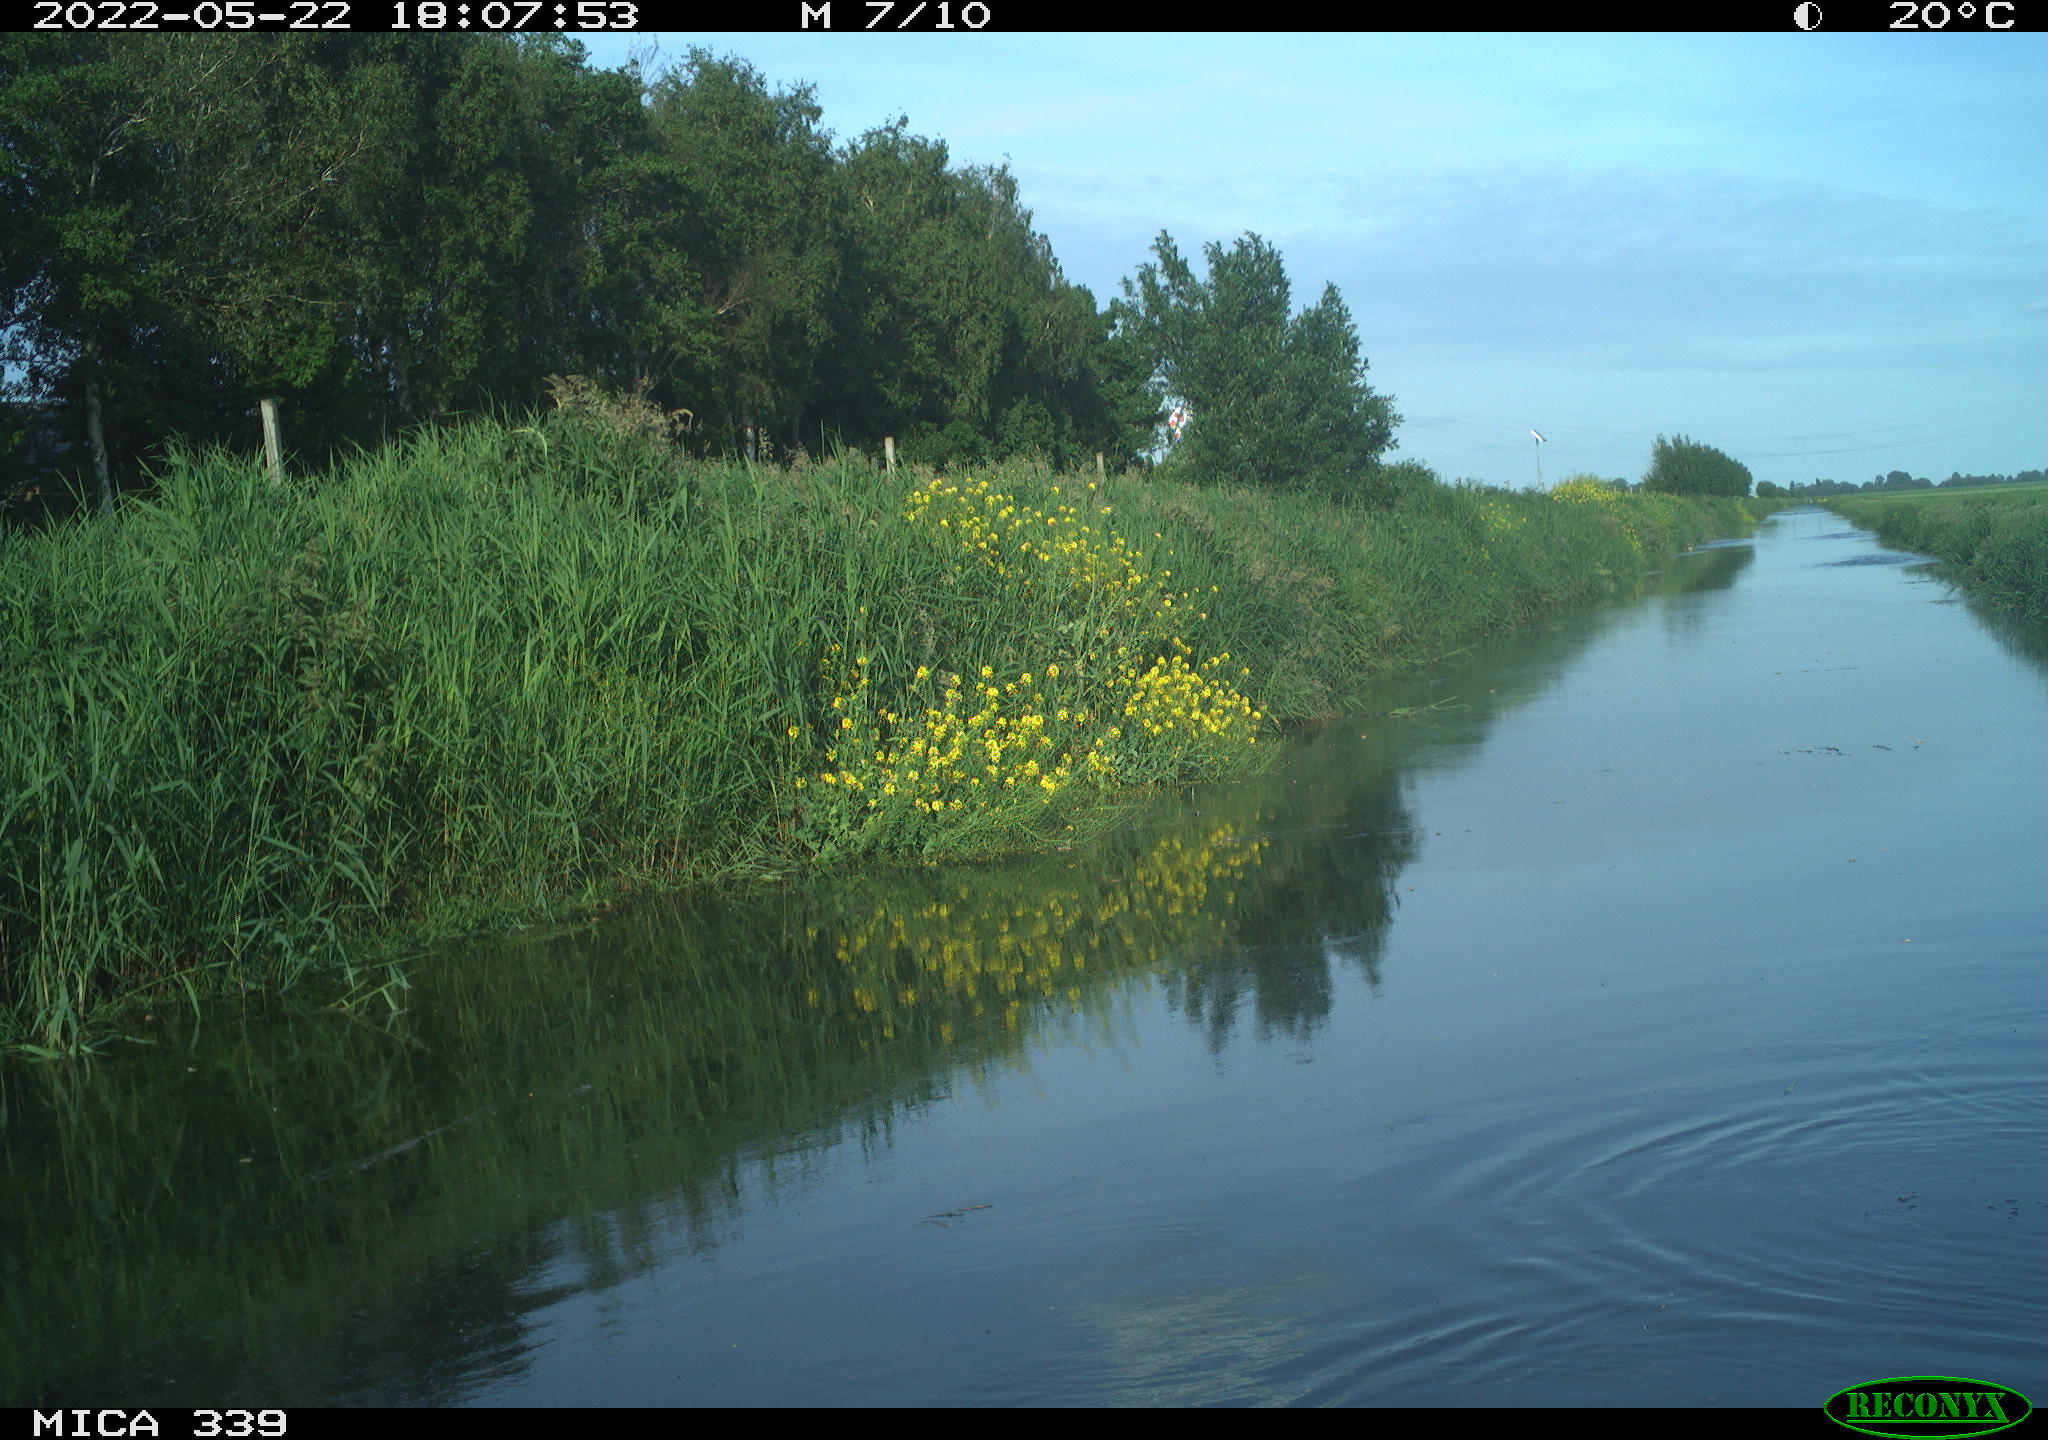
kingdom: Animalia
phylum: Chordata
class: Aves
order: Pelecaniformes
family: Ardeidae
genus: Ardea
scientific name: Ardea cinerea
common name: Grey heron
